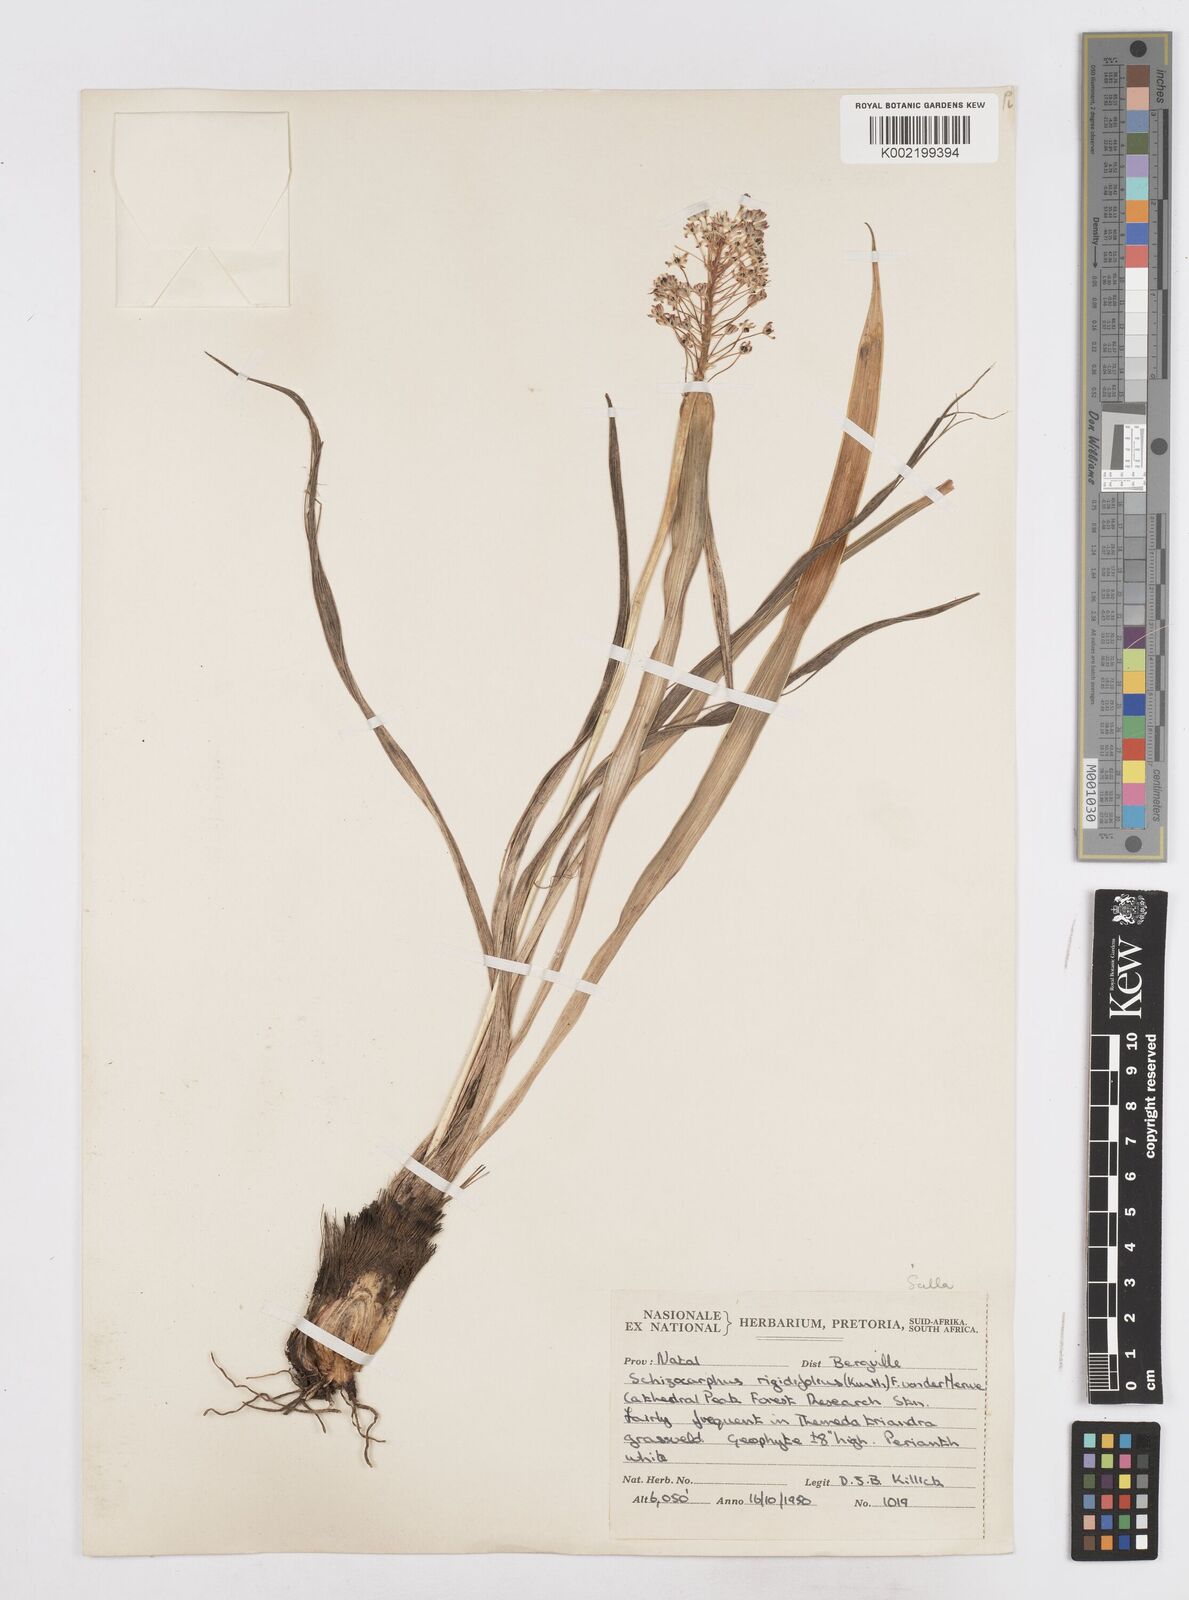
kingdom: Plantae
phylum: Tracheophyta
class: Liliopsida
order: Asparagales
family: Asparagaceae
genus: Schizocarphus
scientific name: Schizocarphus nervosus
